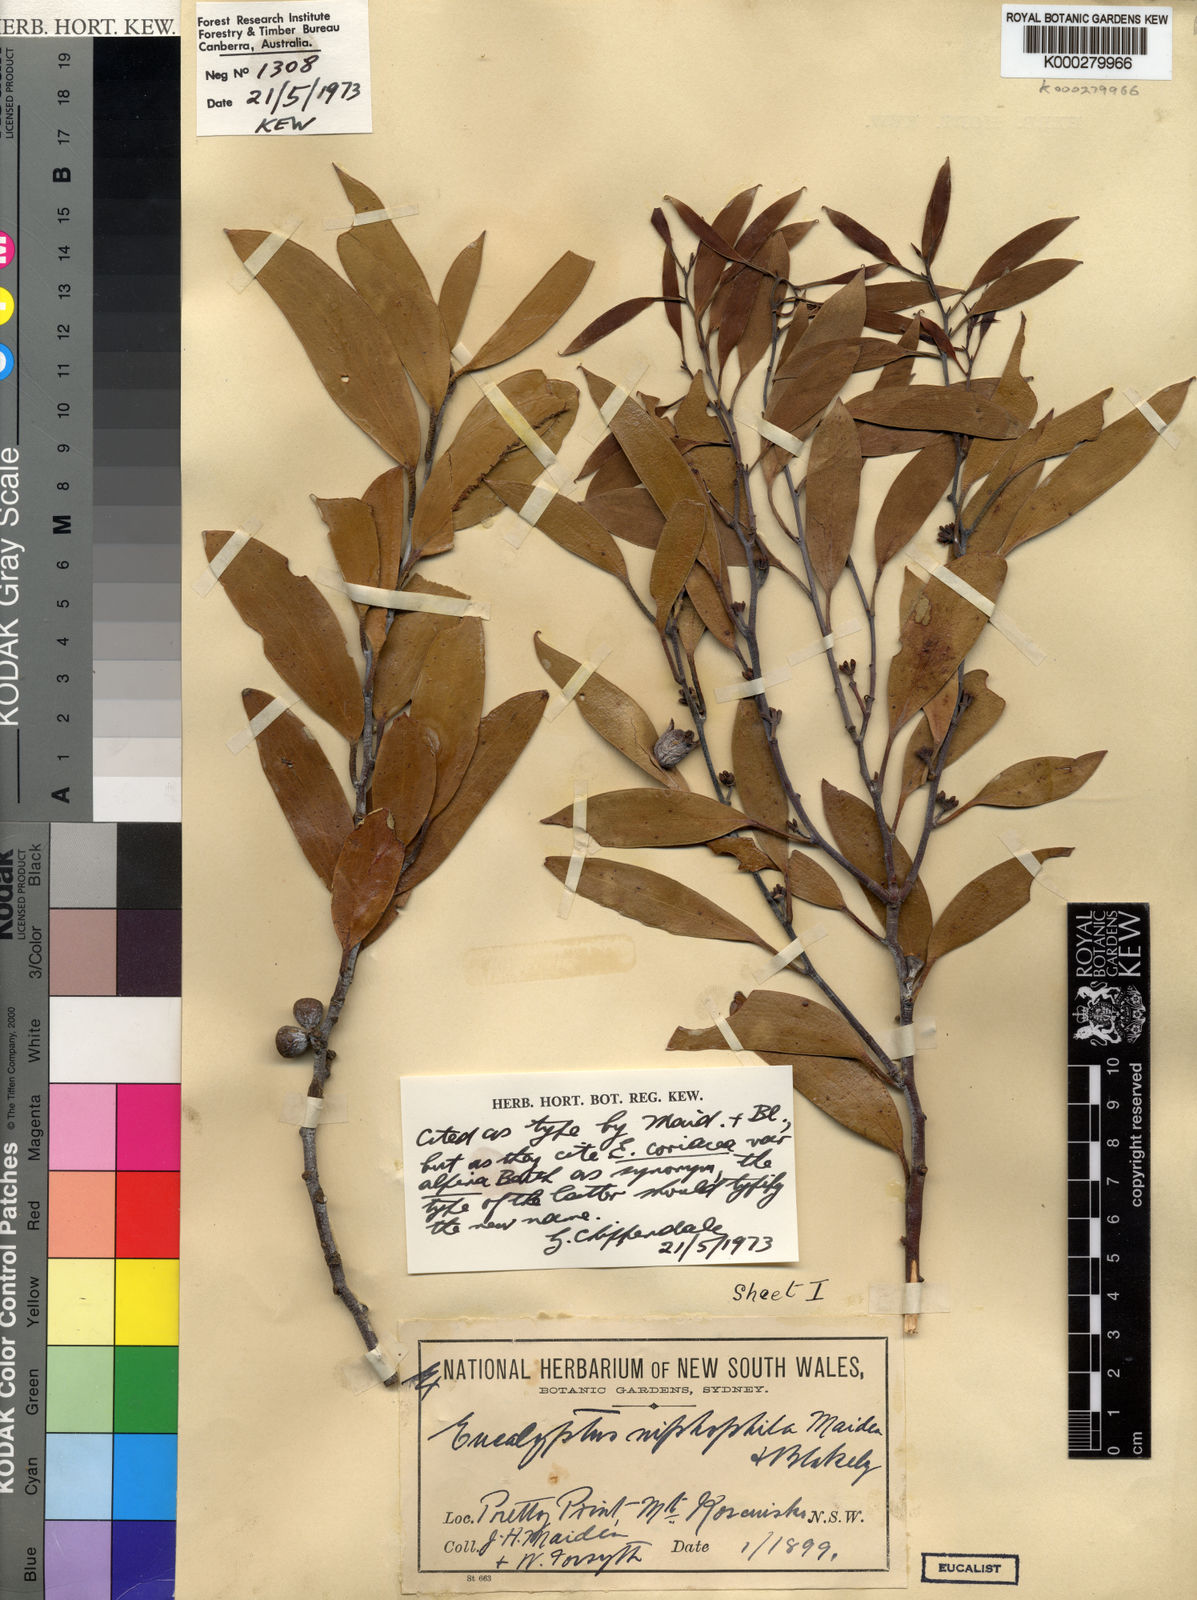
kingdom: Plantae
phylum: Tracheophyta
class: Magnoliopsida
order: Myrtales
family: Myrtaceae
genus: Eucalyptus
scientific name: Eucalyptus pauciflora
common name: Snow gum
